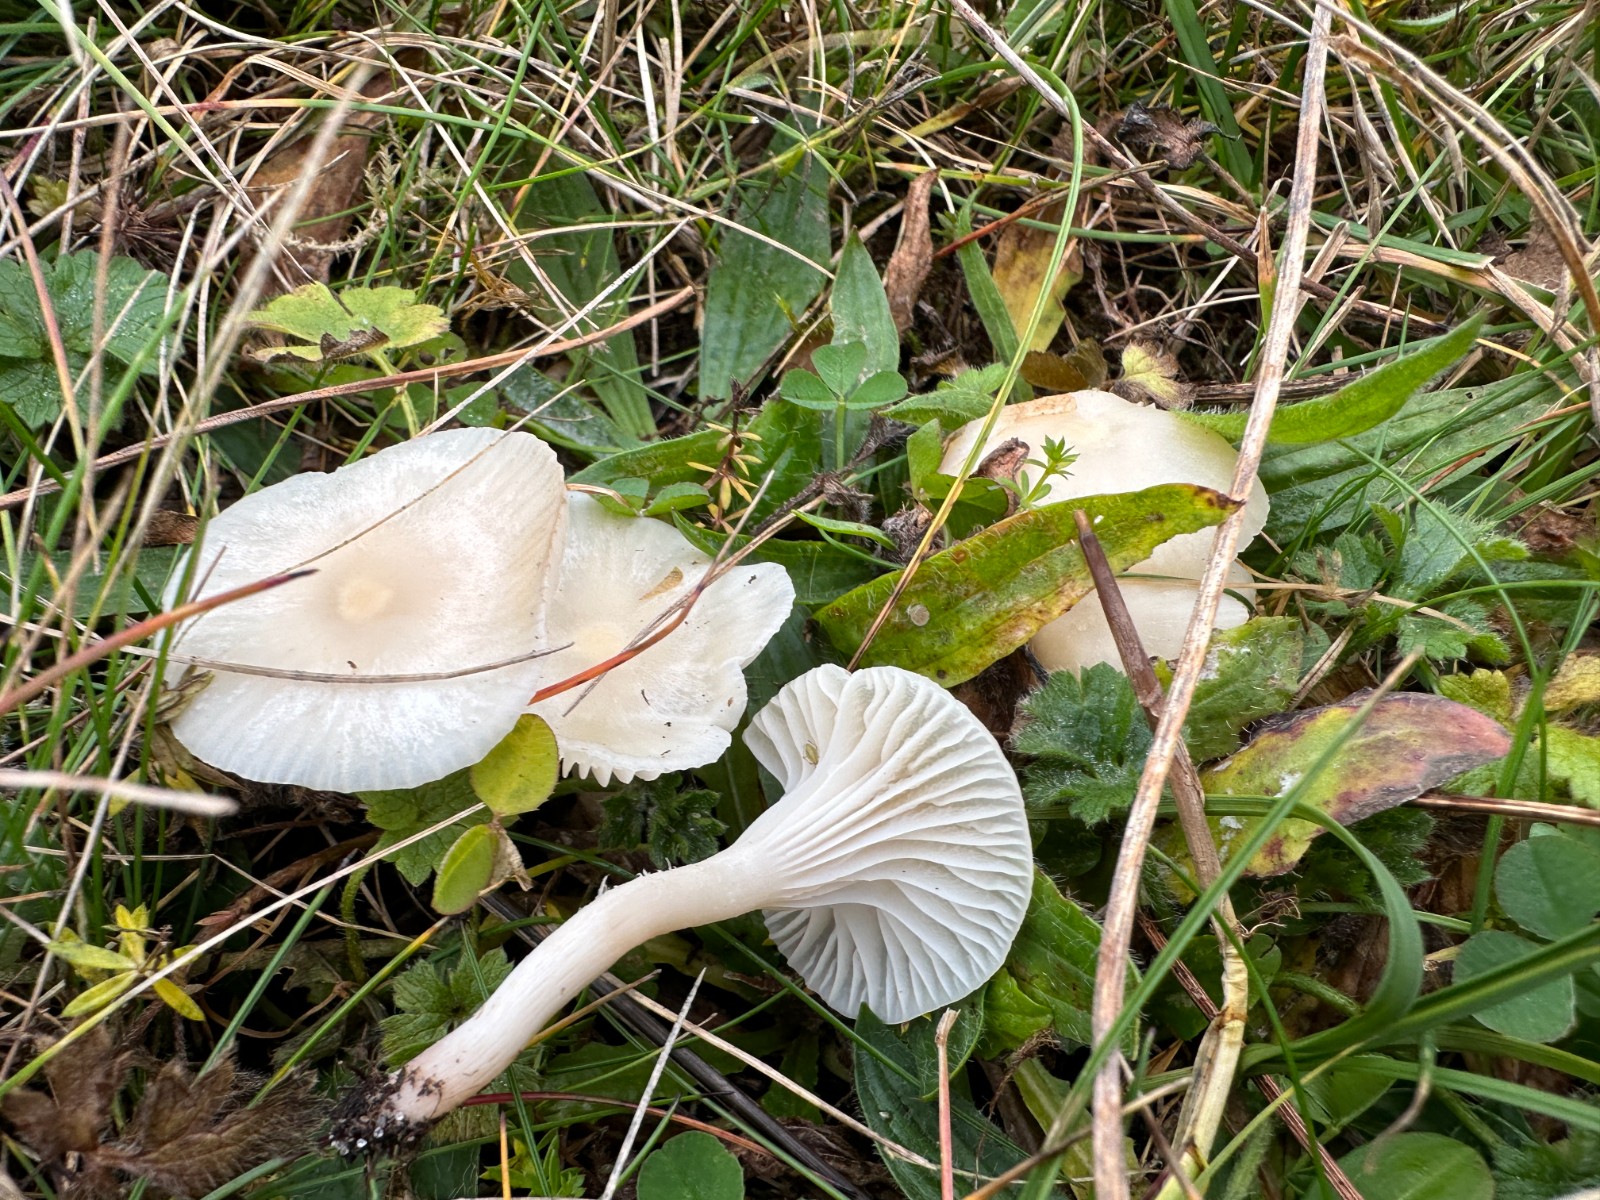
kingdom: Fungi
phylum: Basidiomycota
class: Agaricomycetes
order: Agaricales
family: Hygrophoraceae
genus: Cuphophyllus
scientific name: Cuphophyllus
